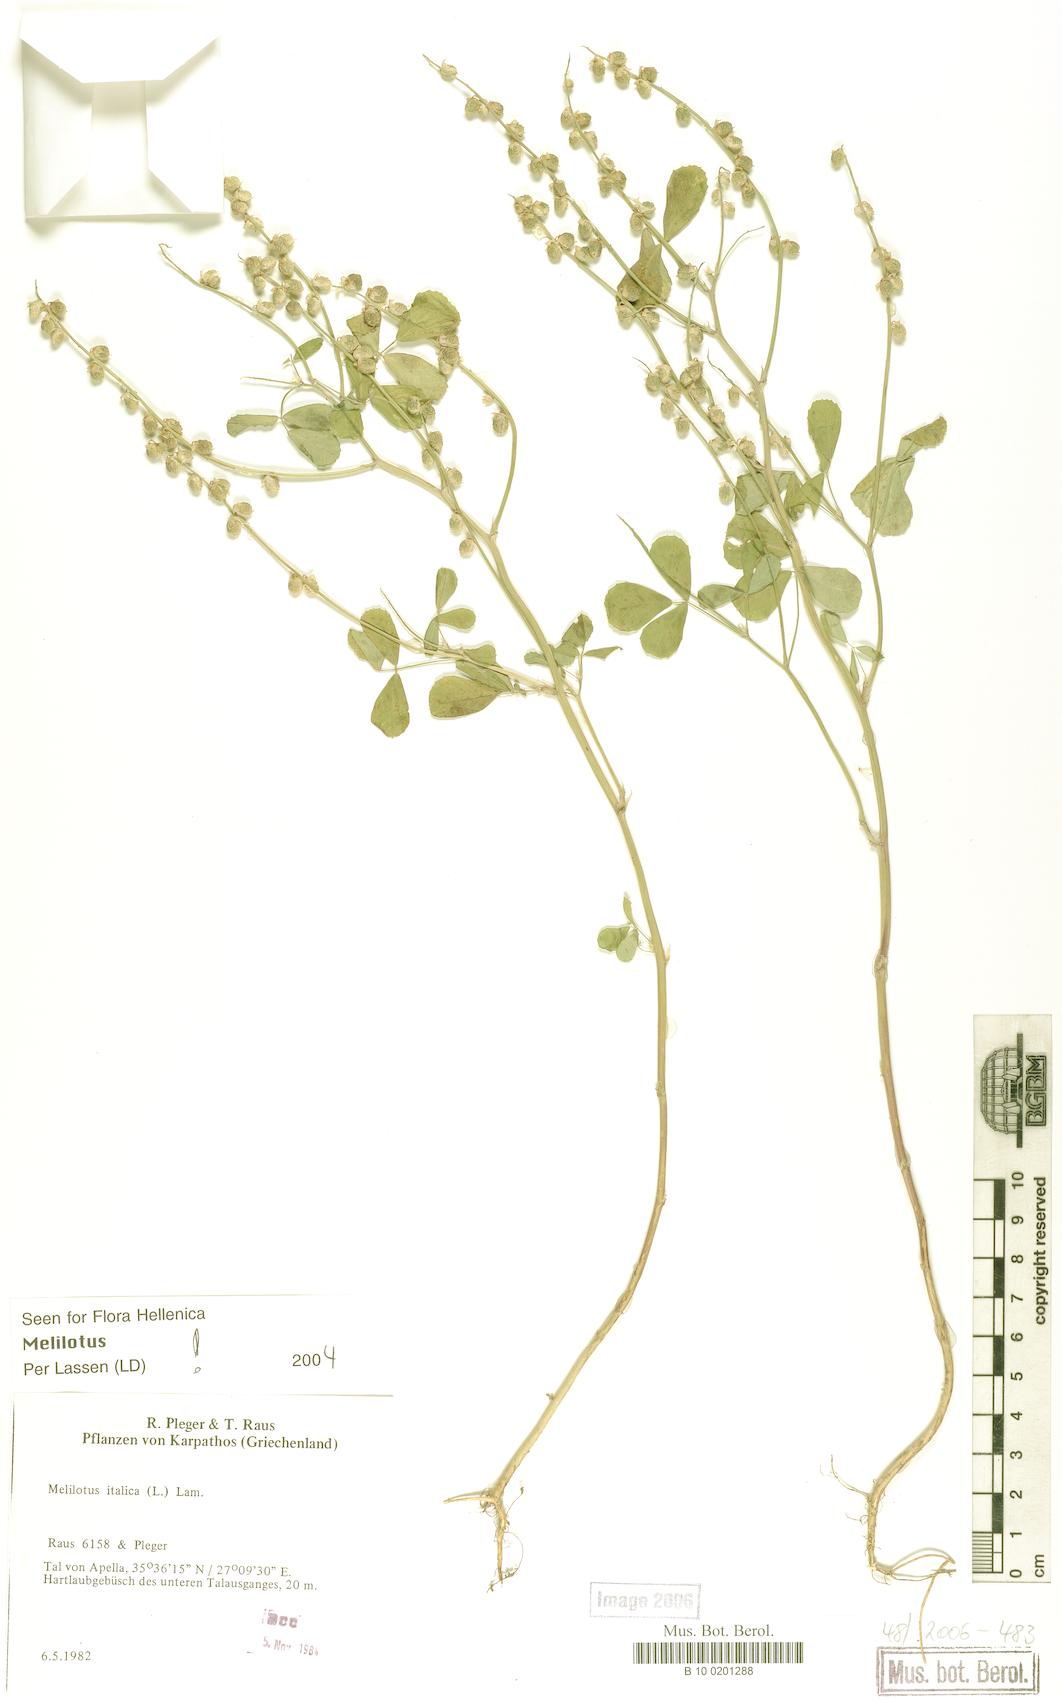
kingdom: Plantae
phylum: Tracheophyta
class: Magnoliopsida
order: Fabales
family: Fabaceae
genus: Melilotus
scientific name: Melilotus italicus
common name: Italian melilot
